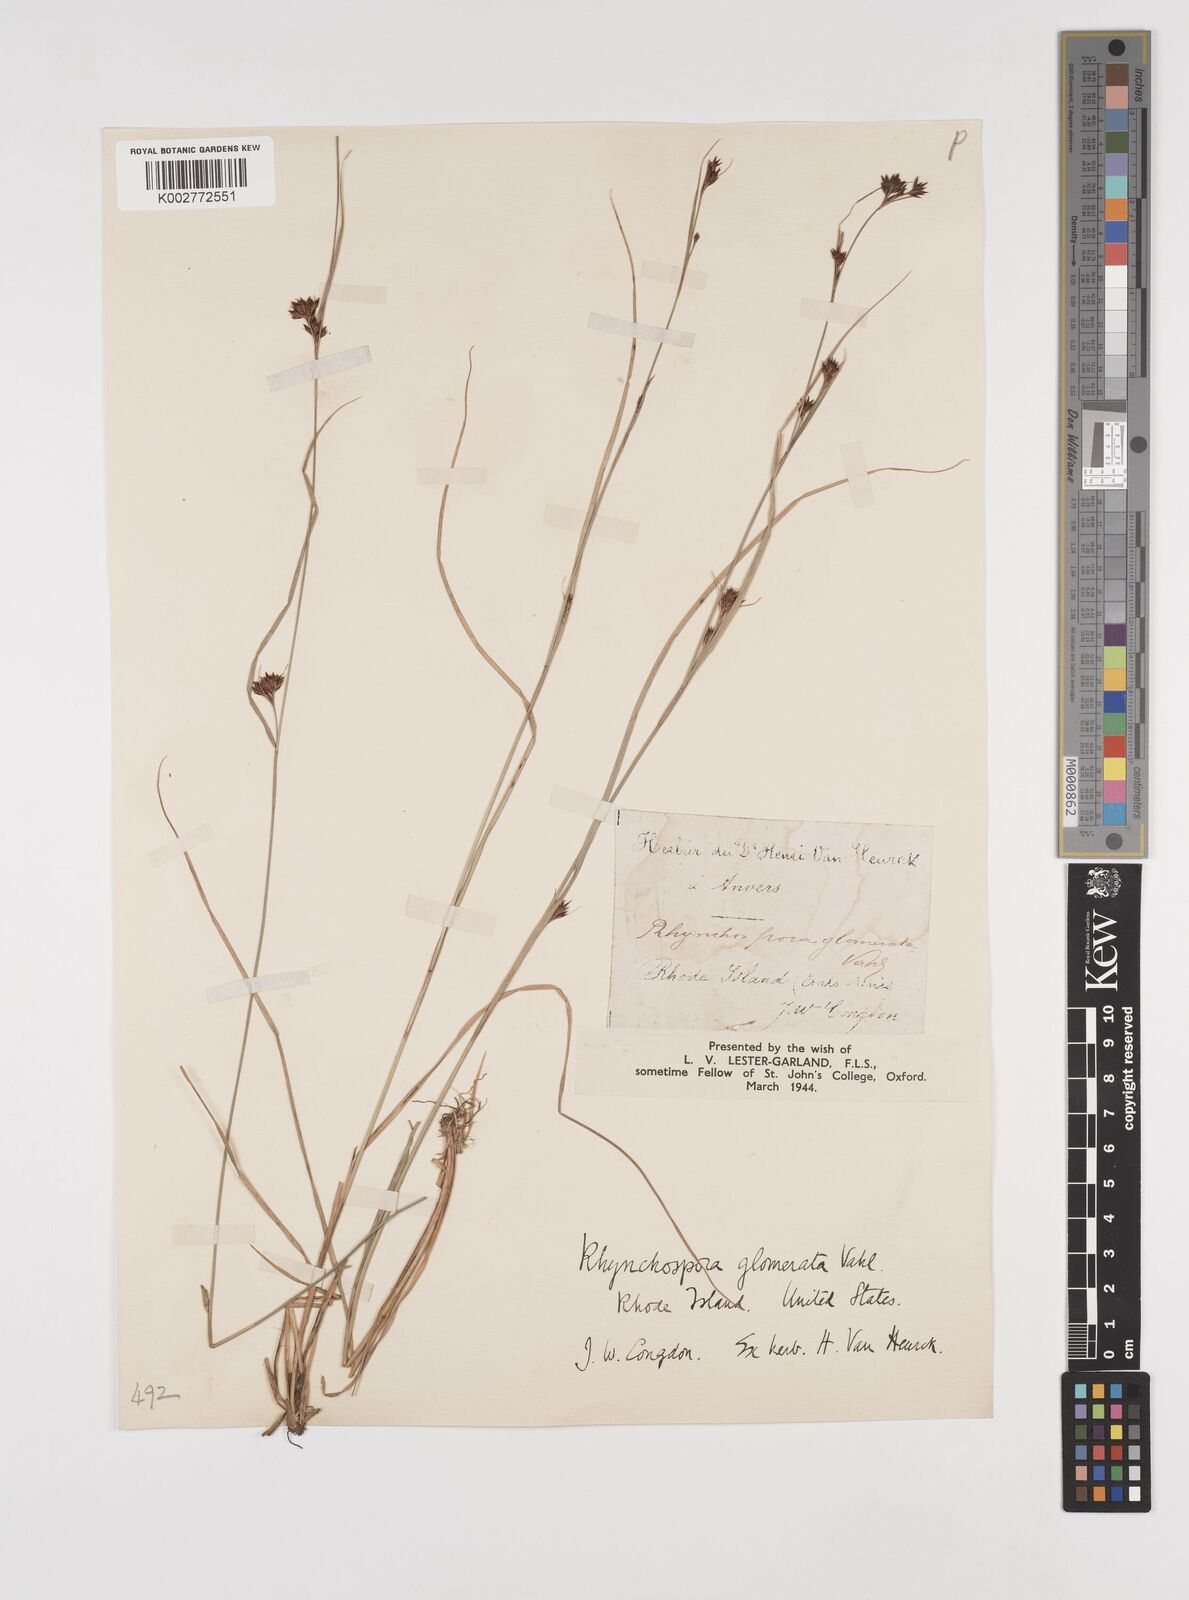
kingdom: Plantae
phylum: Tracheophyta
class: Liliopsida
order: Poales
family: Cyperaceae
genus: Rhynchospora
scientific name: Rhynchospora glomerata
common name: Cluster beak sedge
